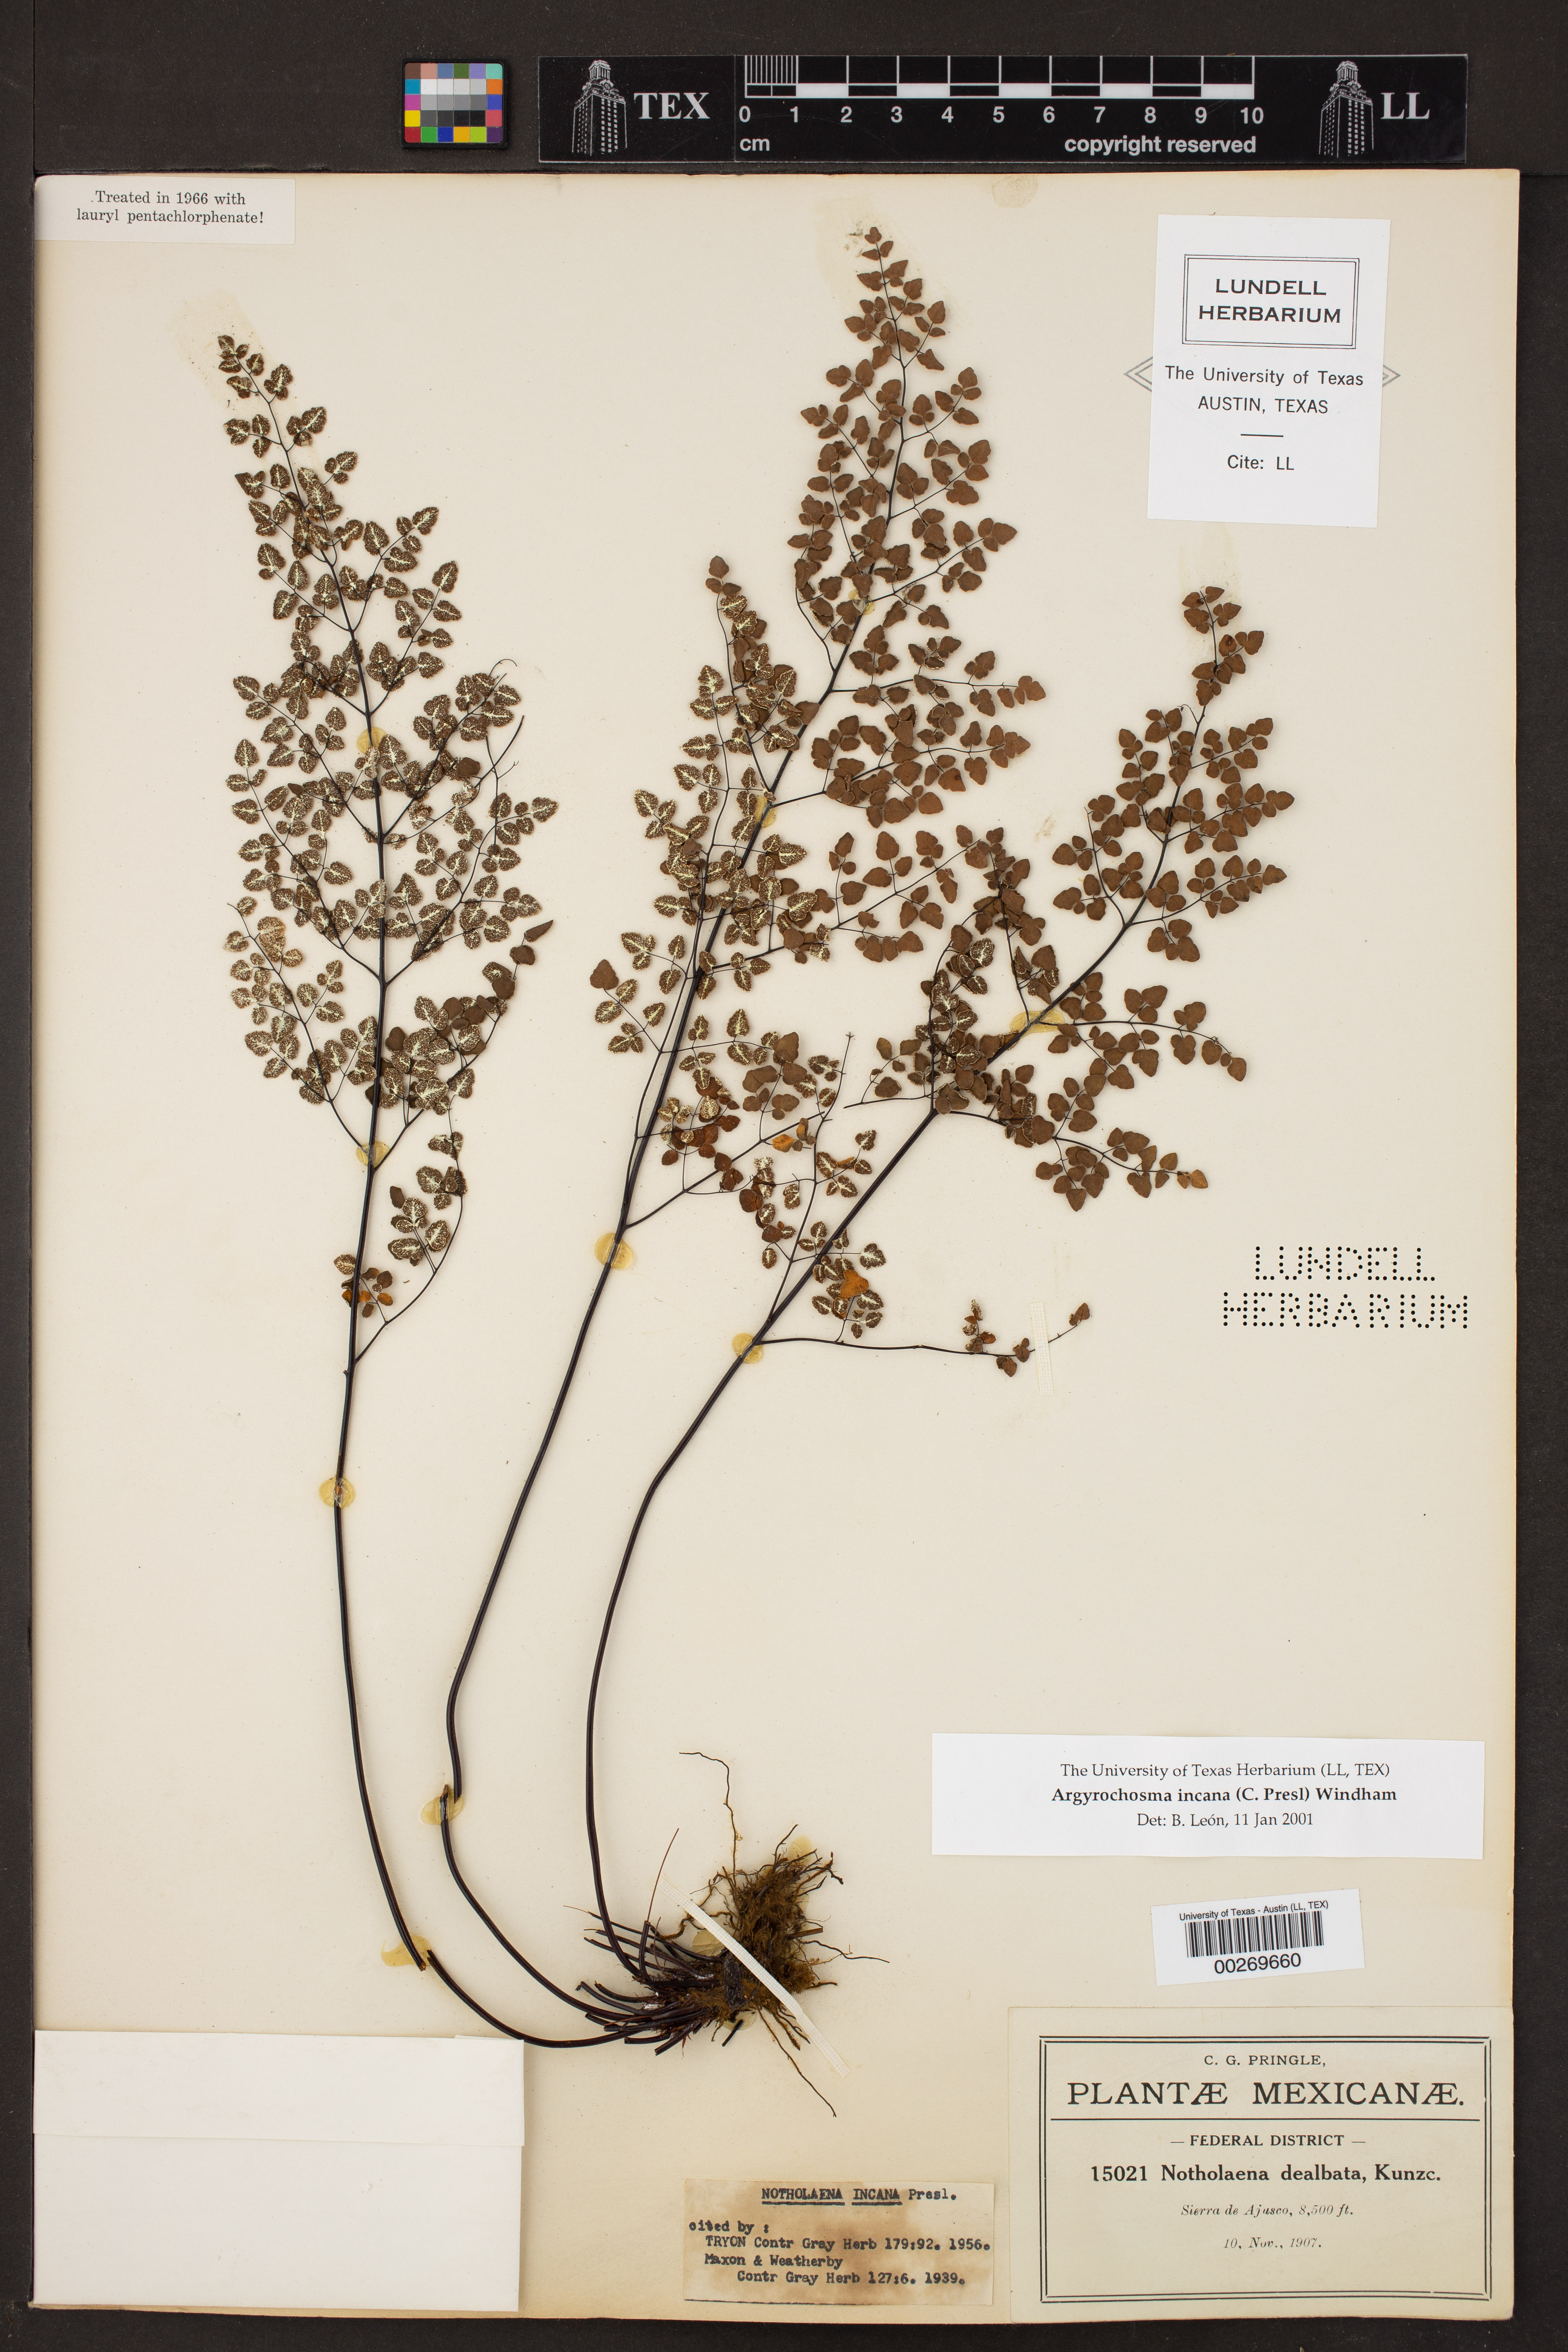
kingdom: Plantae
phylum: Tracheophyta
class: Polypodiopsida
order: Polypodiales
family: Pteridaceae
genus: Argyrochosma
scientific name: Argyrochosma incana
